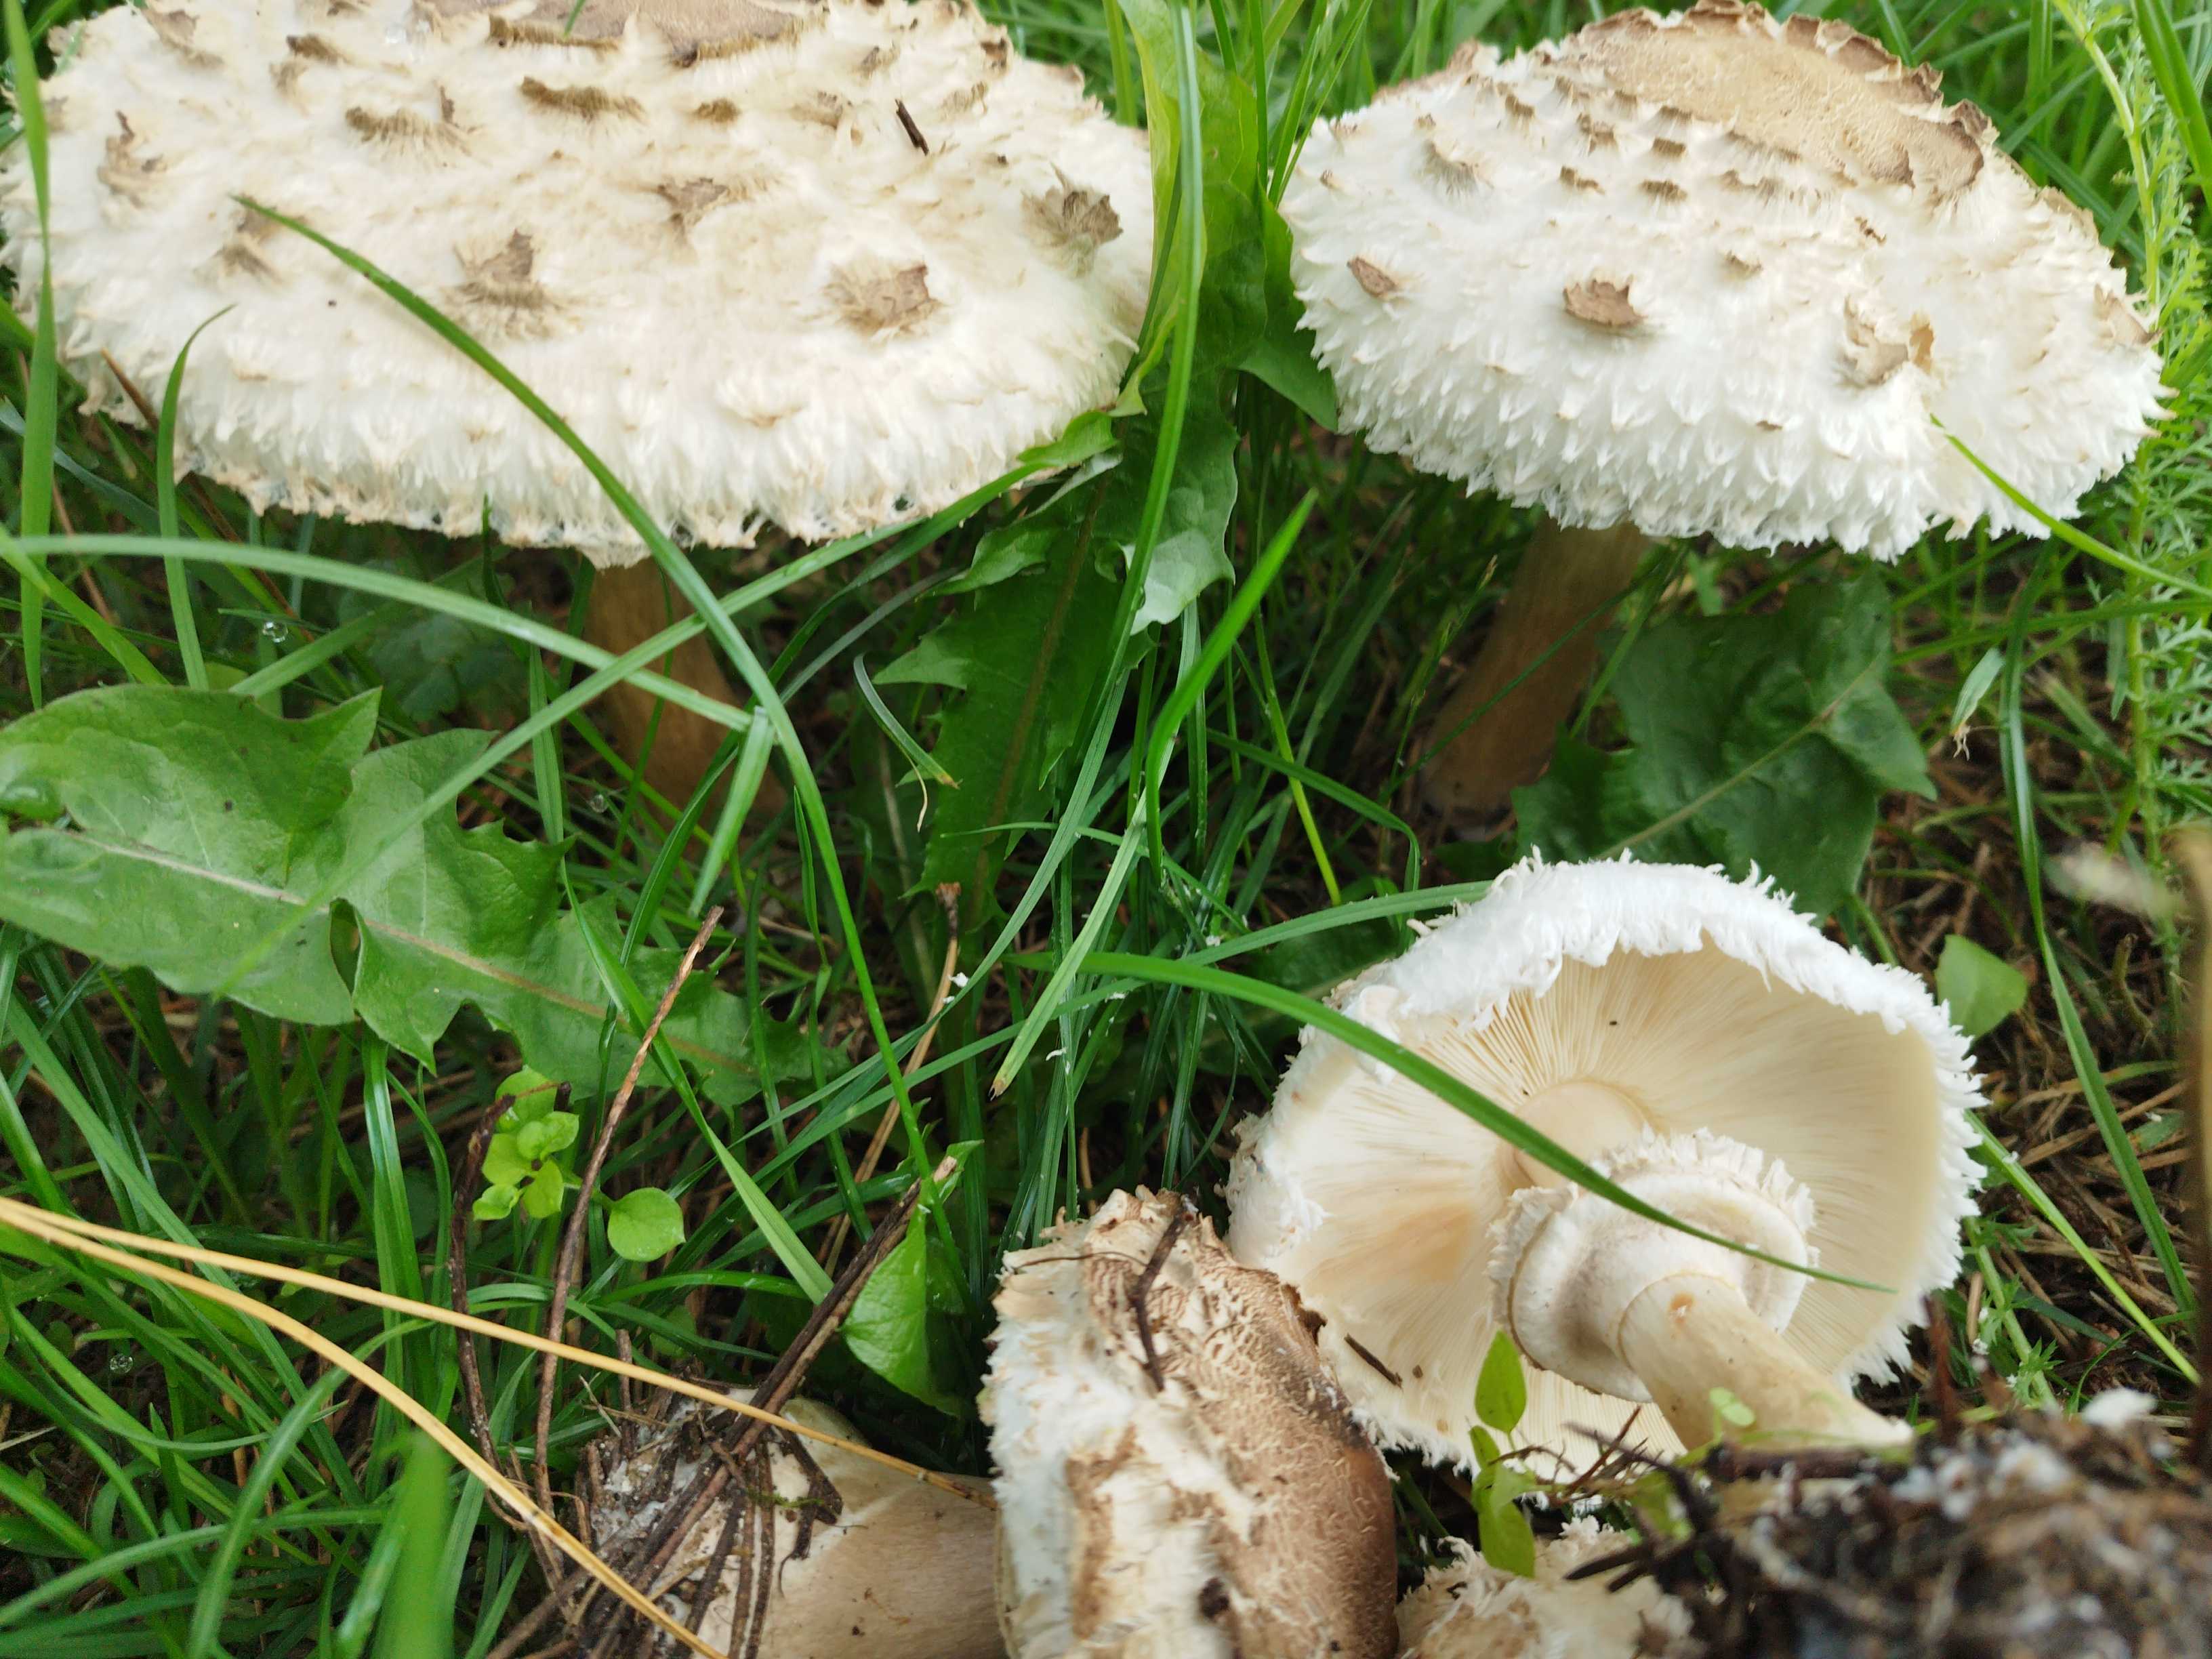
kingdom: Fungi
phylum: Basidiomycota
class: Agaricomycetes
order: Agaricales
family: Agaricaceae
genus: Chlorophyllum
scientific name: Chlorophyllum rhacodes
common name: ægte rabarberhat
